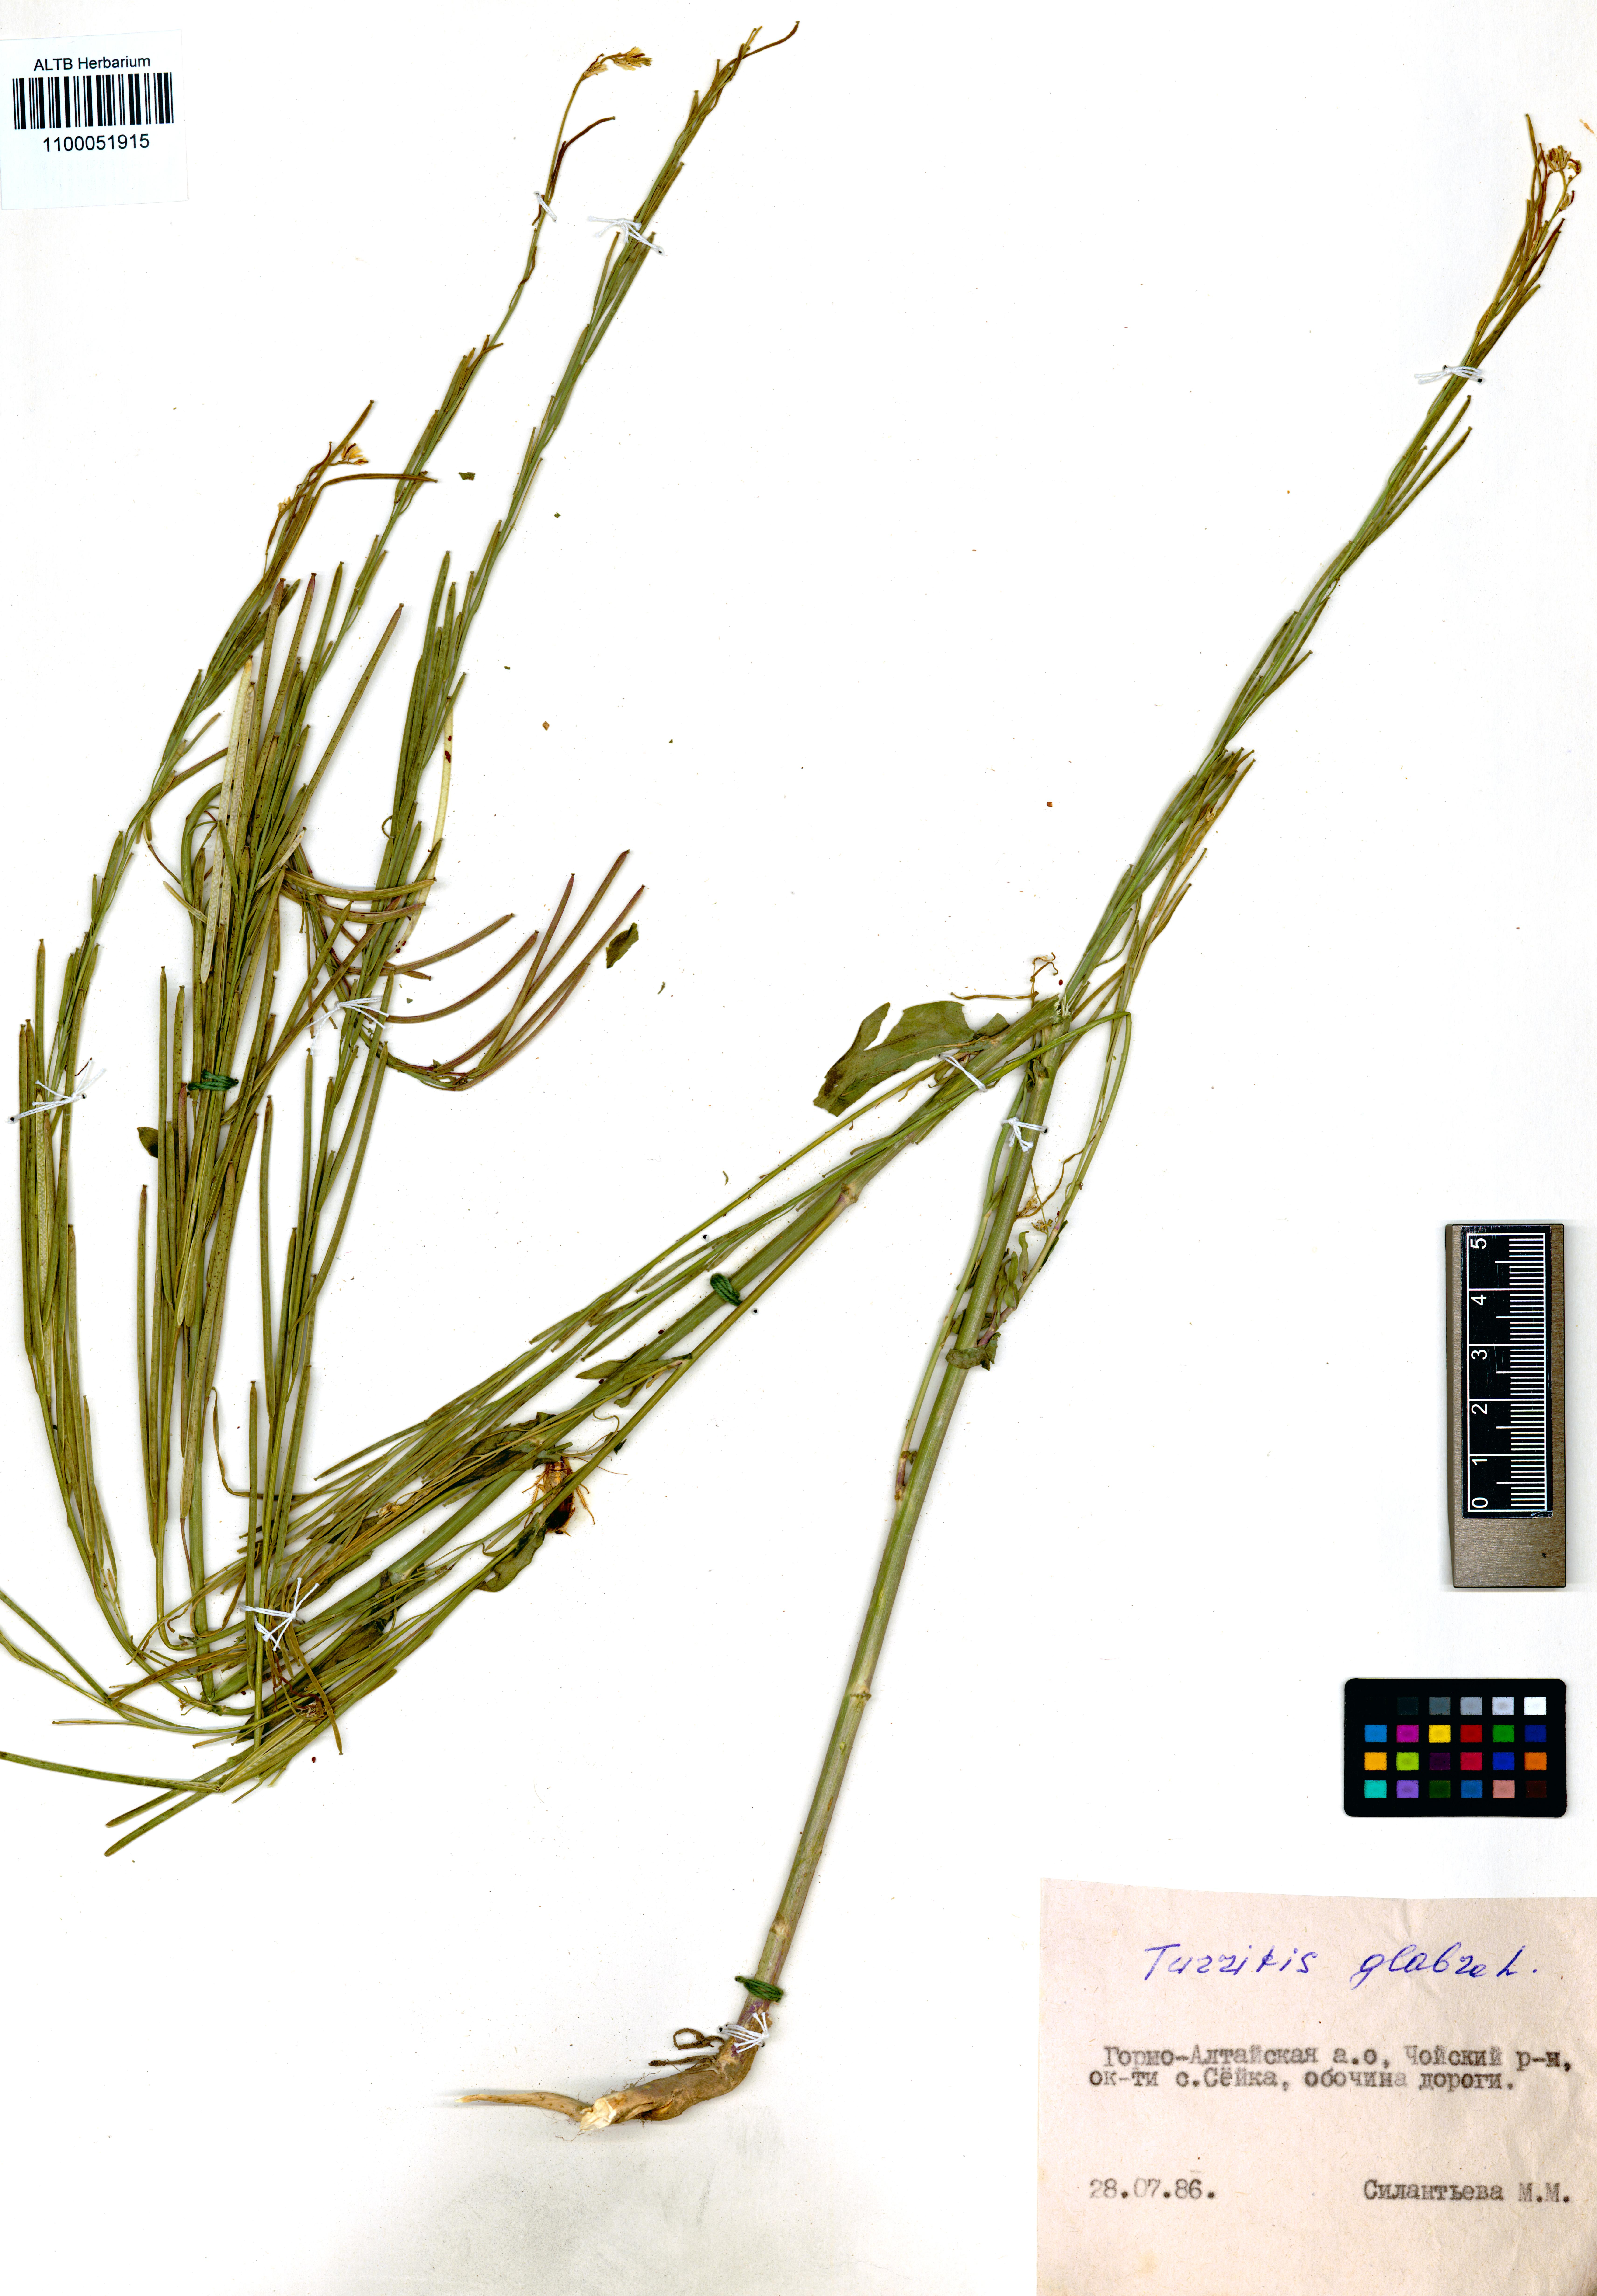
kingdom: Plantae
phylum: Tracheophyta
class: Magnoliopsida
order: Brassicales
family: Brassicaceae
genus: Turritis
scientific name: Turritis glabra
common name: Tower rockcress
